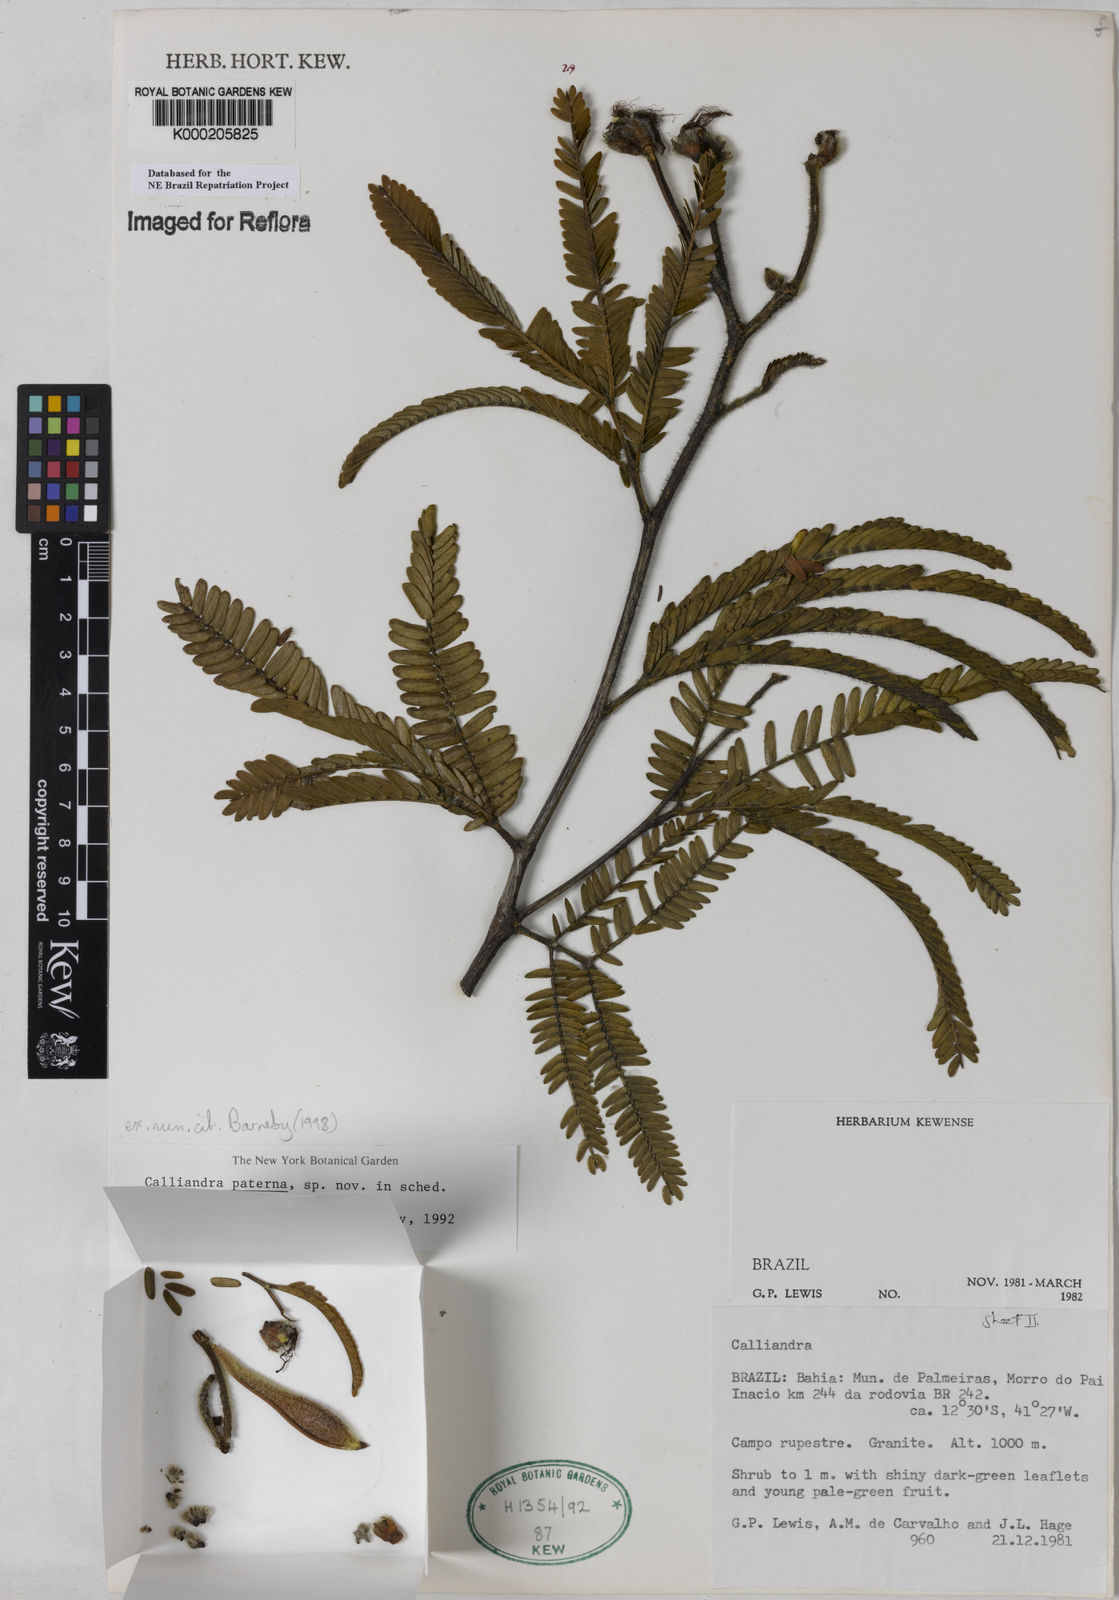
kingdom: Plantae
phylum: Tracheophyta
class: Magnoliopsida
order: Fabales
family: Fabaceae
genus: Calliandra
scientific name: Calliandra paterna
